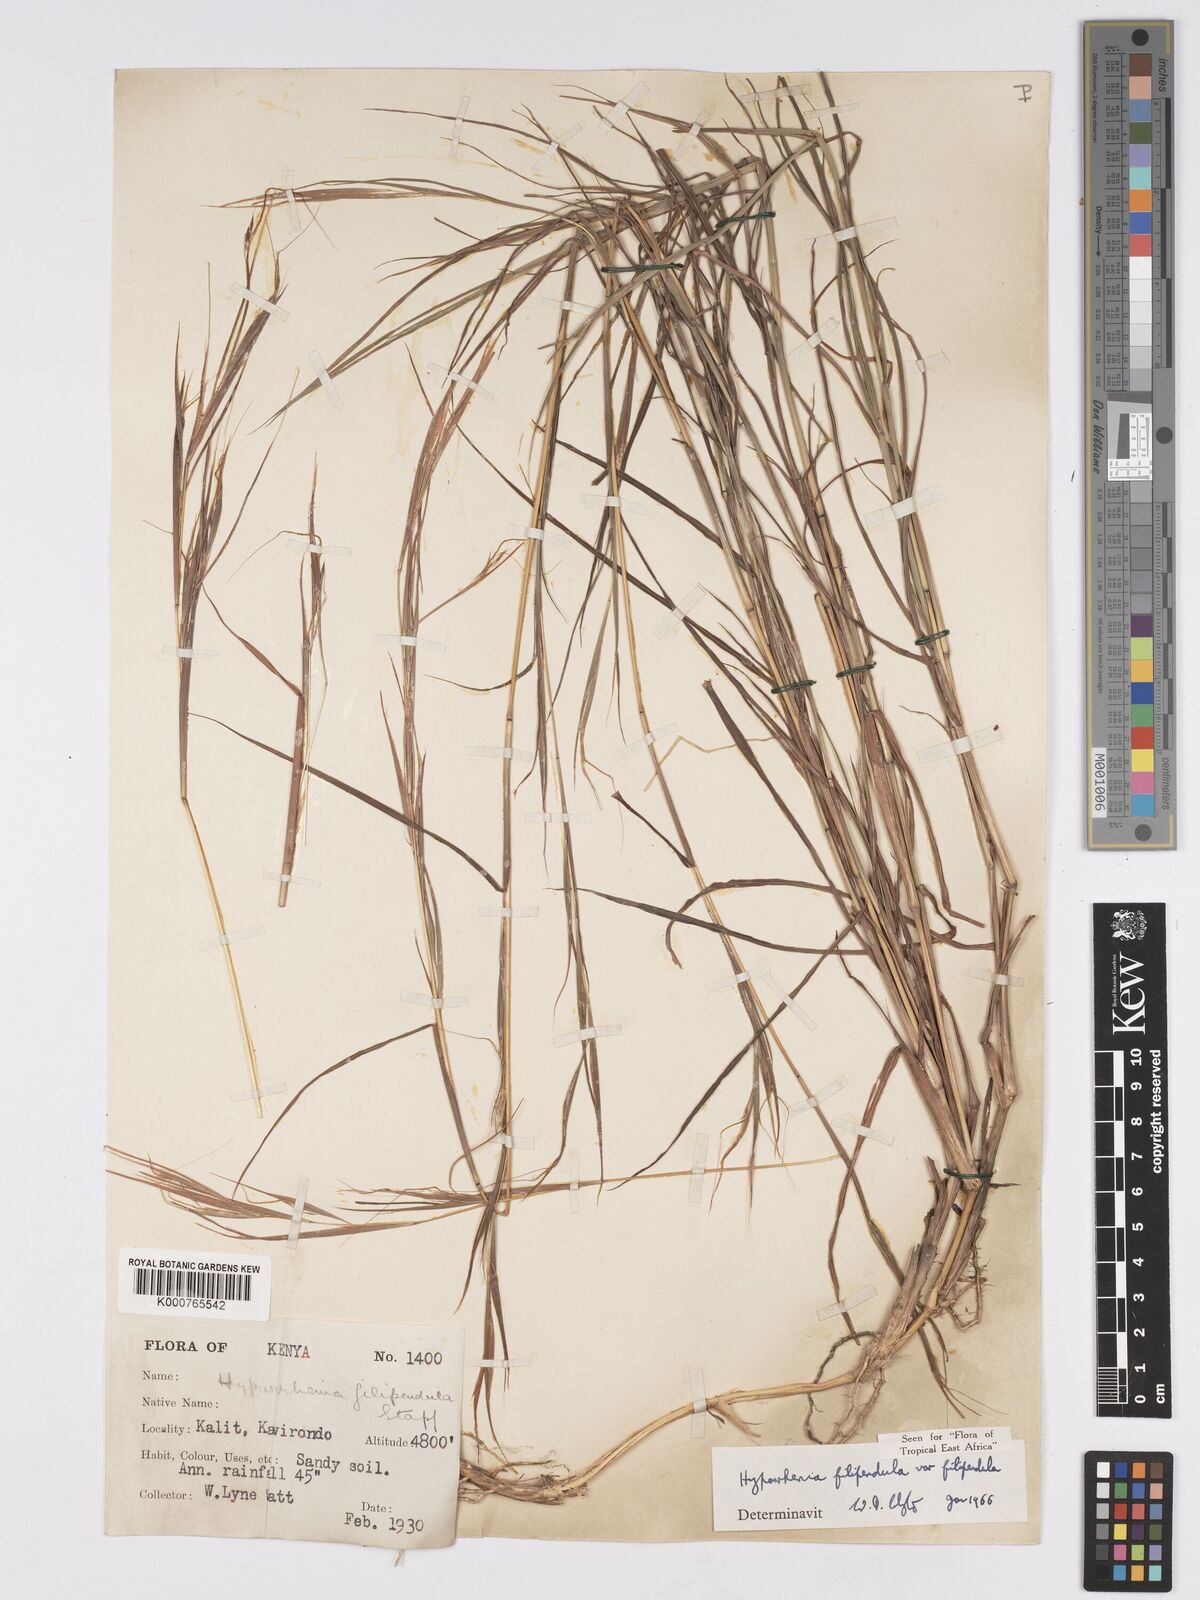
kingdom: Plantae
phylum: Tracheophyta
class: Liliopsida
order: Poales
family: Poaceae
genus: Hyparrhenia
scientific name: Hyparrhenia filipendula
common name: Tambookie grass
